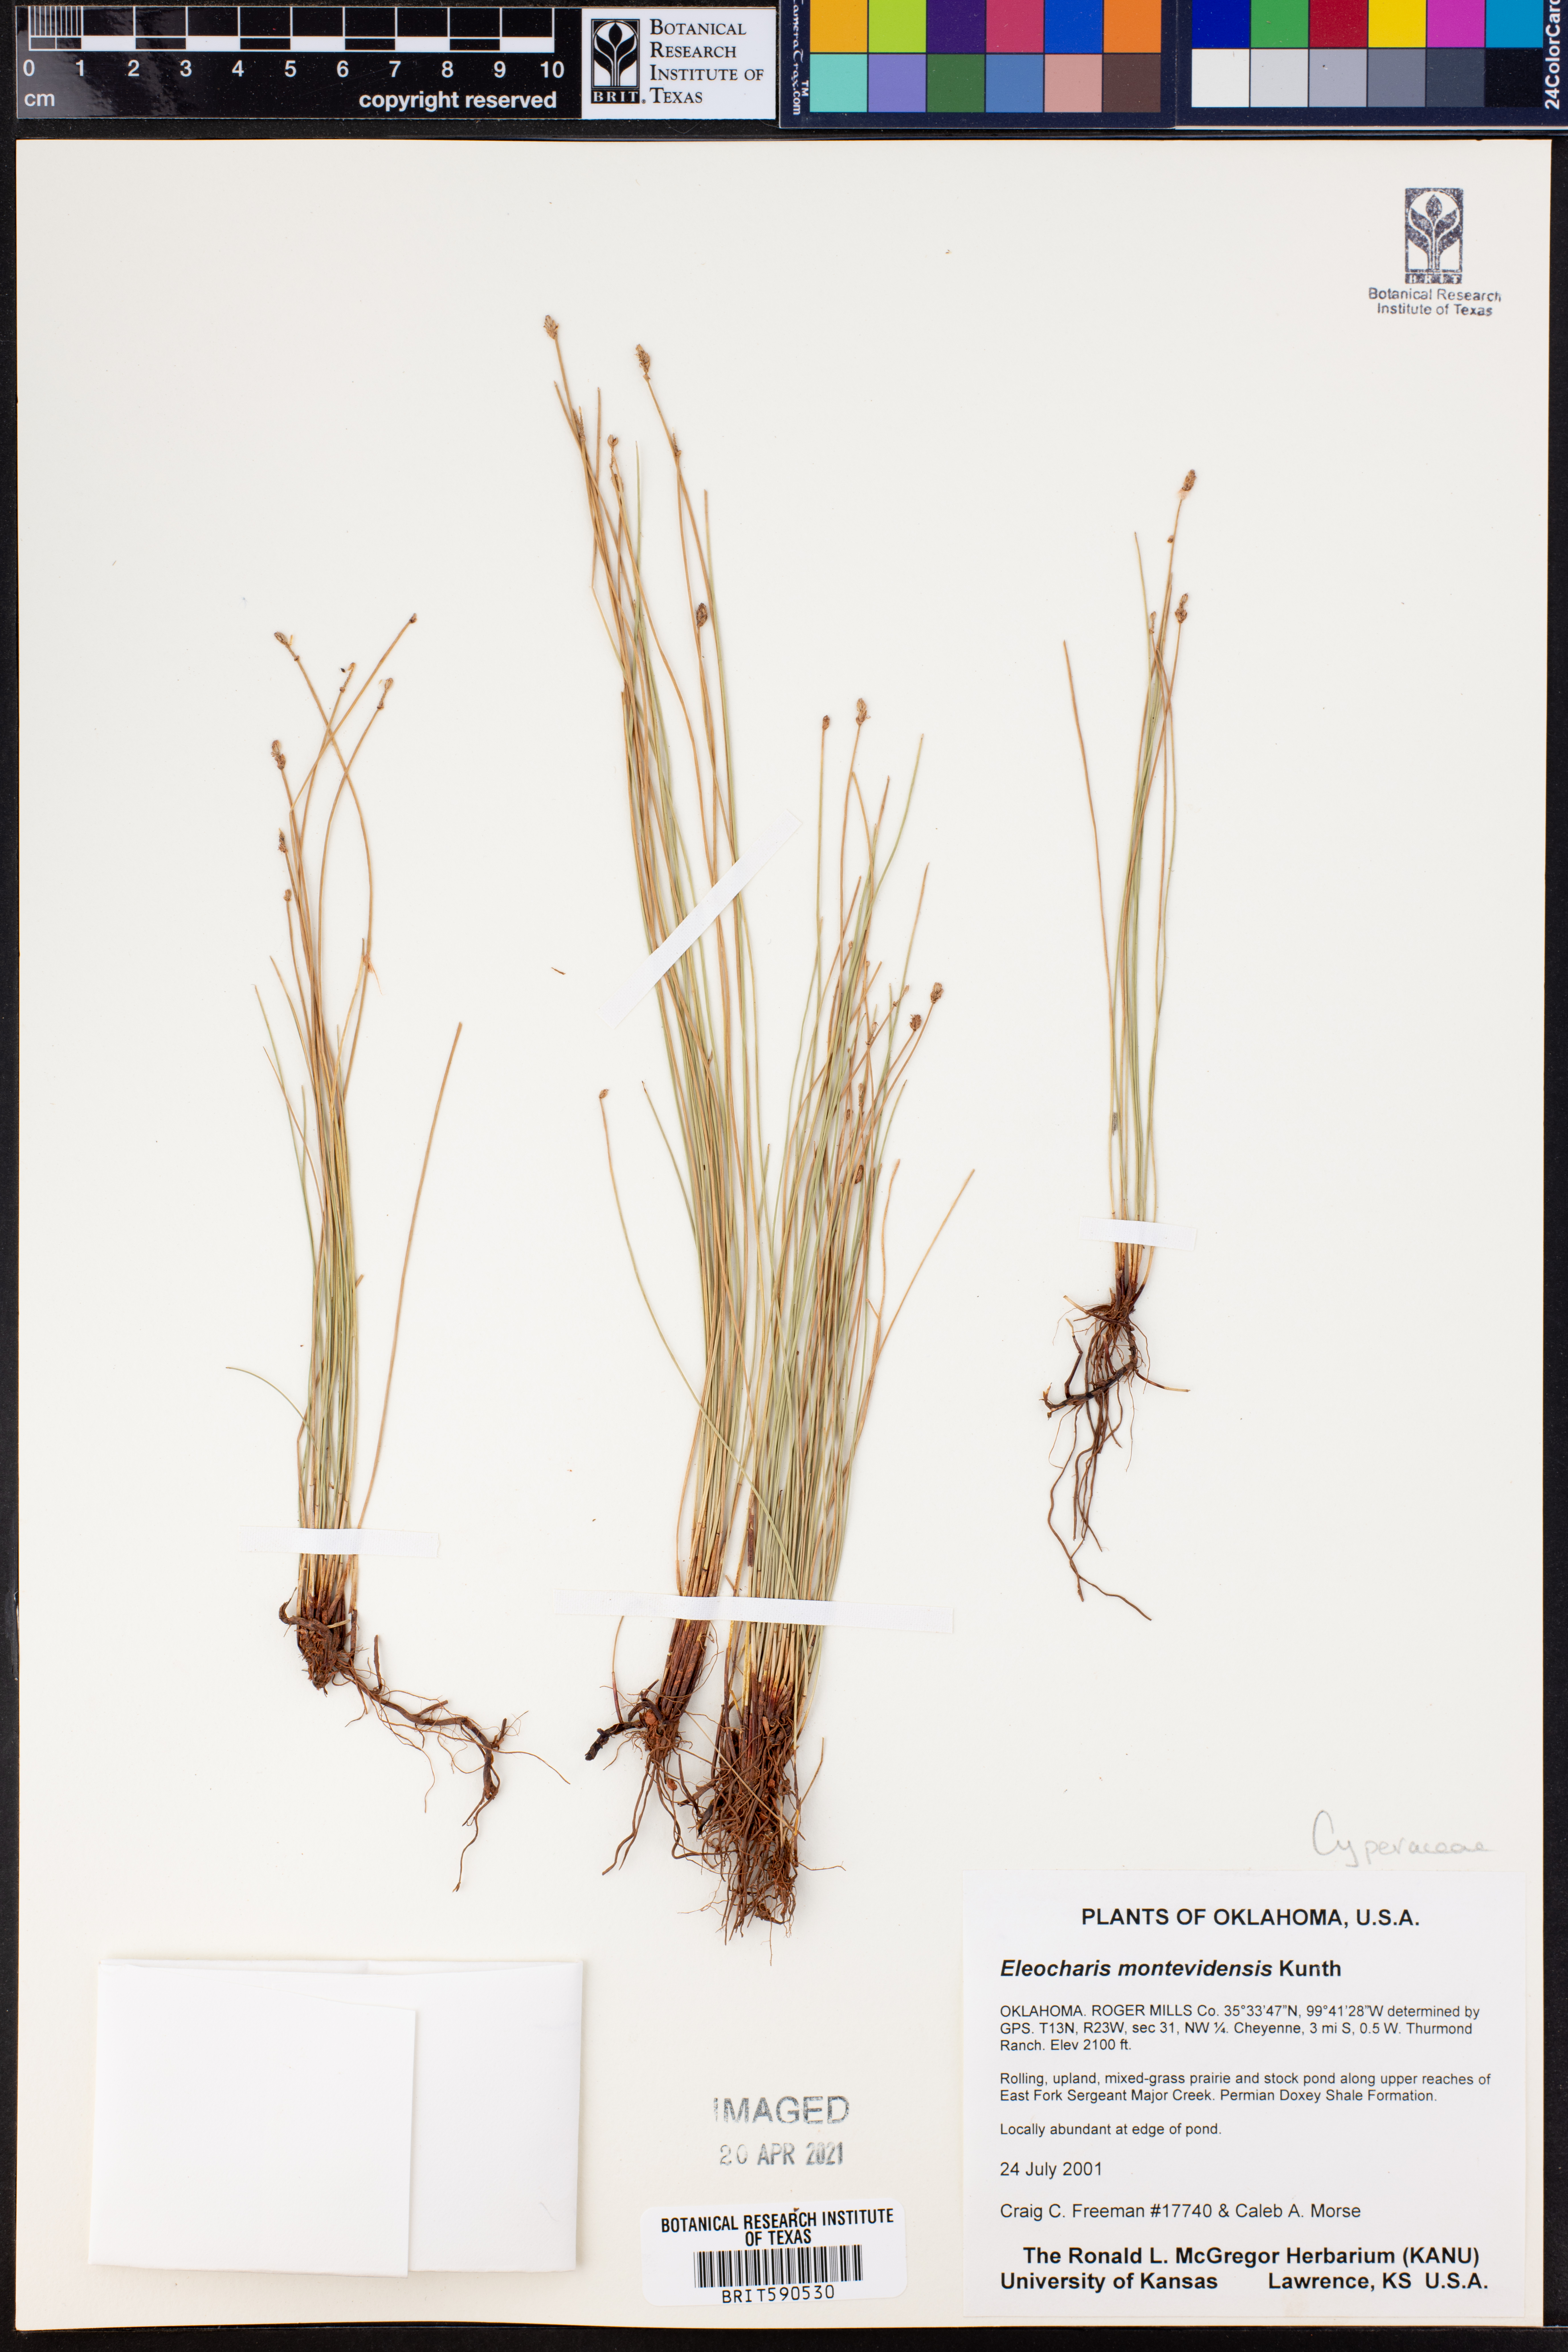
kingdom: Plantae
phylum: Tracheophyta
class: Liliopsida
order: Poales
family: Cyperaceae
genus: Eleocharis
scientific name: Eleocharis montevidensis
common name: Sand spike-rush
